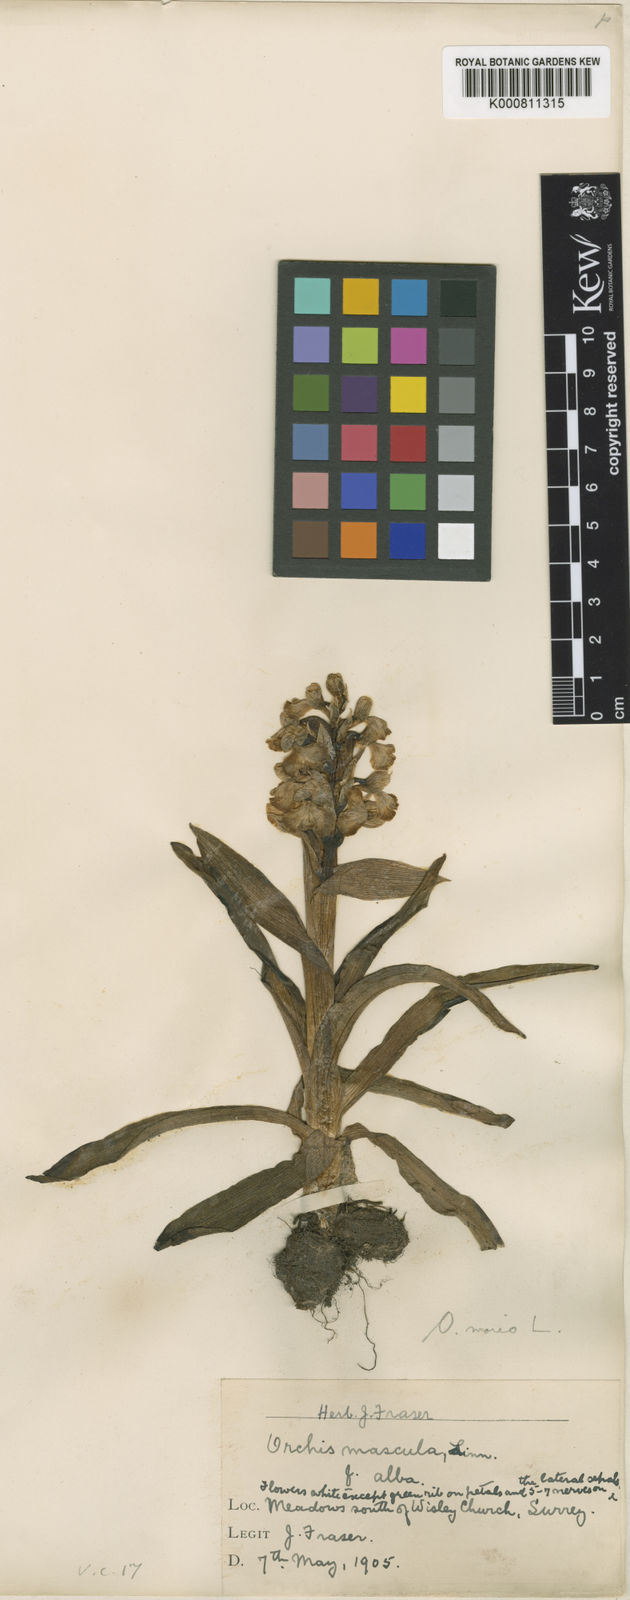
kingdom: Plantae
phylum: Tracheophyta
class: Liliopsida
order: Asparagales
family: Orchidaceae
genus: Anacamptis
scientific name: Anacamptis morio
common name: Green-winged orchid
